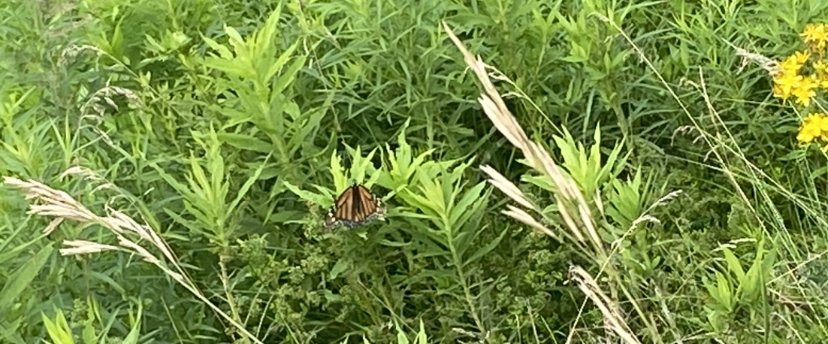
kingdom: Animalia
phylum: Arthropoda
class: Insecta
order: Lepidoptera
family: Nymphalidae
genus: Danaus
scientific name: Danaus plexippus
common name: Monarch
